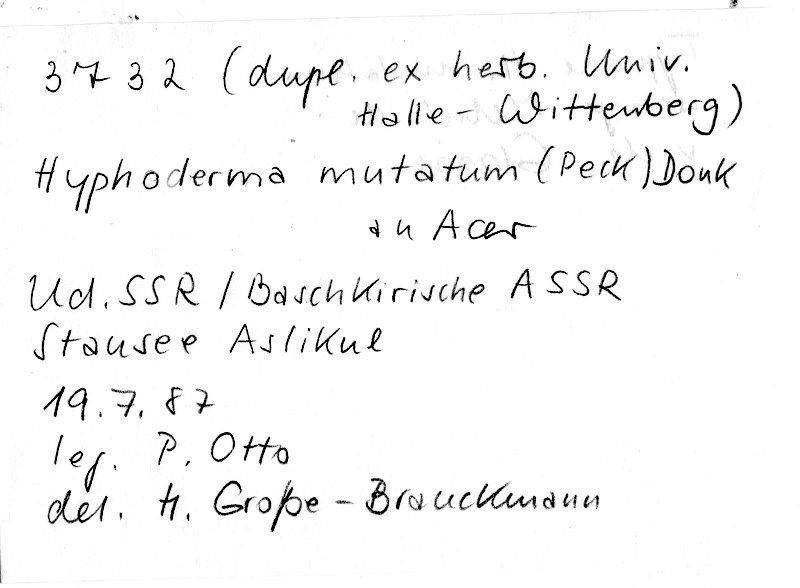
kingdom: Plantae
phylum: Tracheophyta
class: Magnoliopsida
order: Sapindales
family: Sapindaceae
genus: Acer
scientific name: Acer
